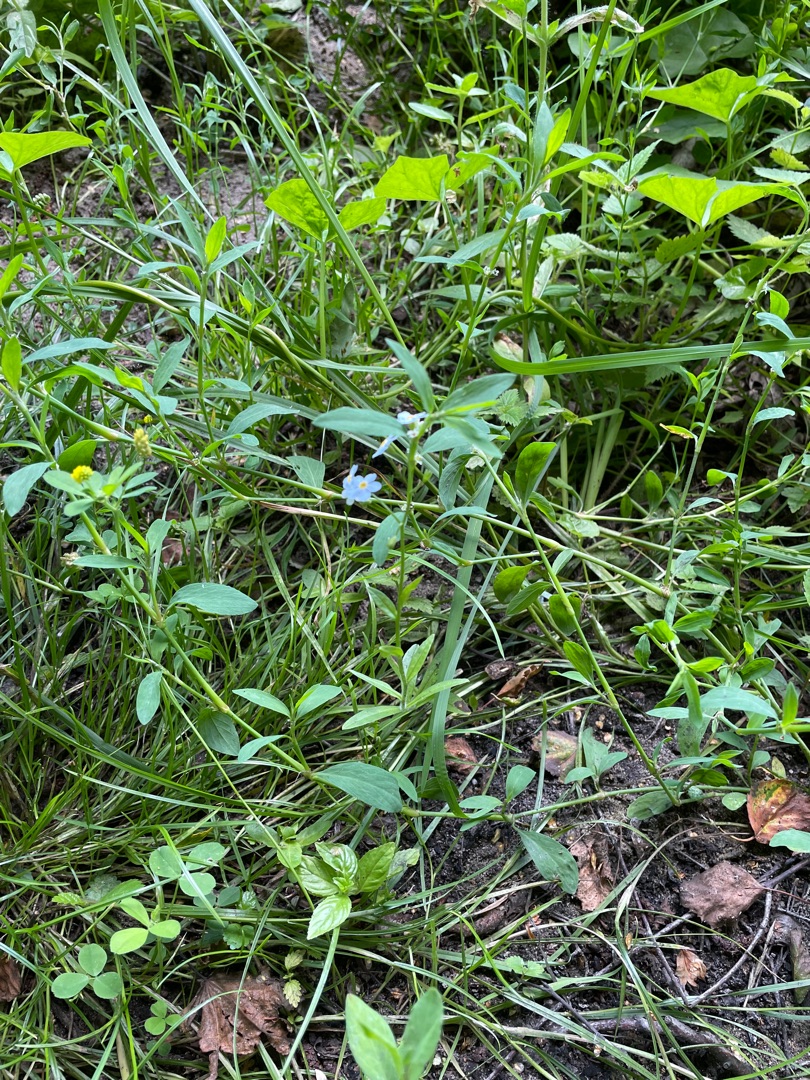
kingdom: Plantae
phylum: Tracheophyta
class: Magnoliopsida
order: Boraginales
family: Boraginaceae
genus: Myosotis
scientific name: Myosotis scorpioides
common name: Eng-forglemmigej
